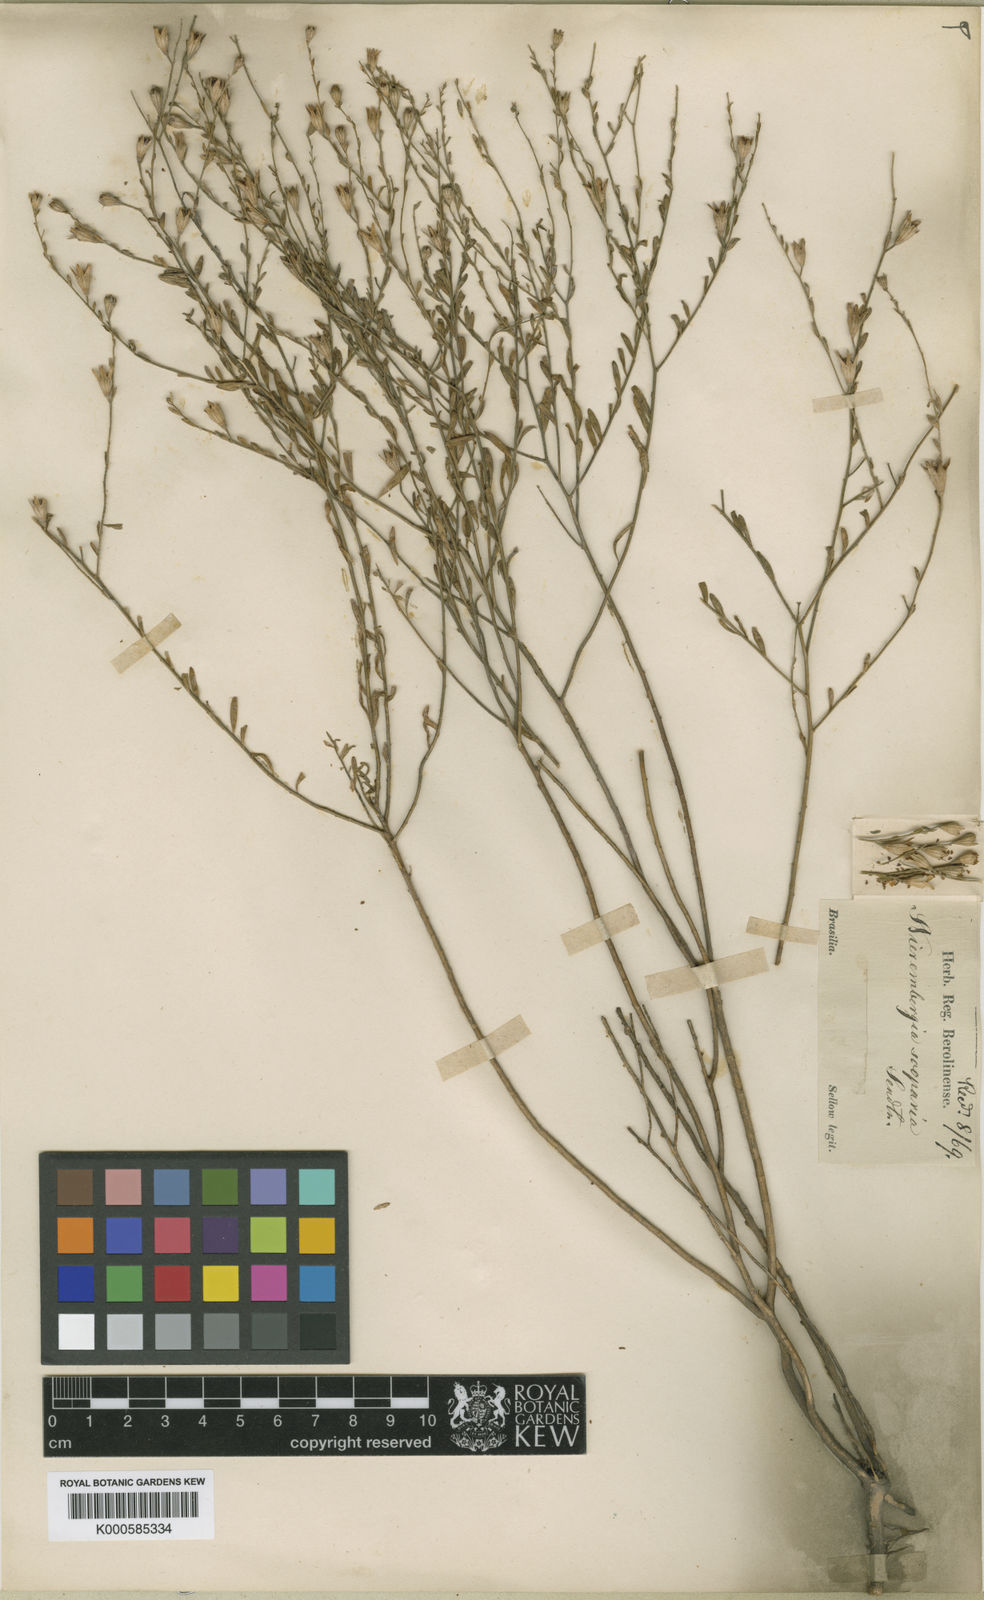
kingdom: Plantae
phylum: Tracheophyta
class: Magnoliopsida
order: Solanales
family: Solanaceae
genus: Nierembergia
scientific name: Nierembergia scoparia
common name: Broom cupflower
